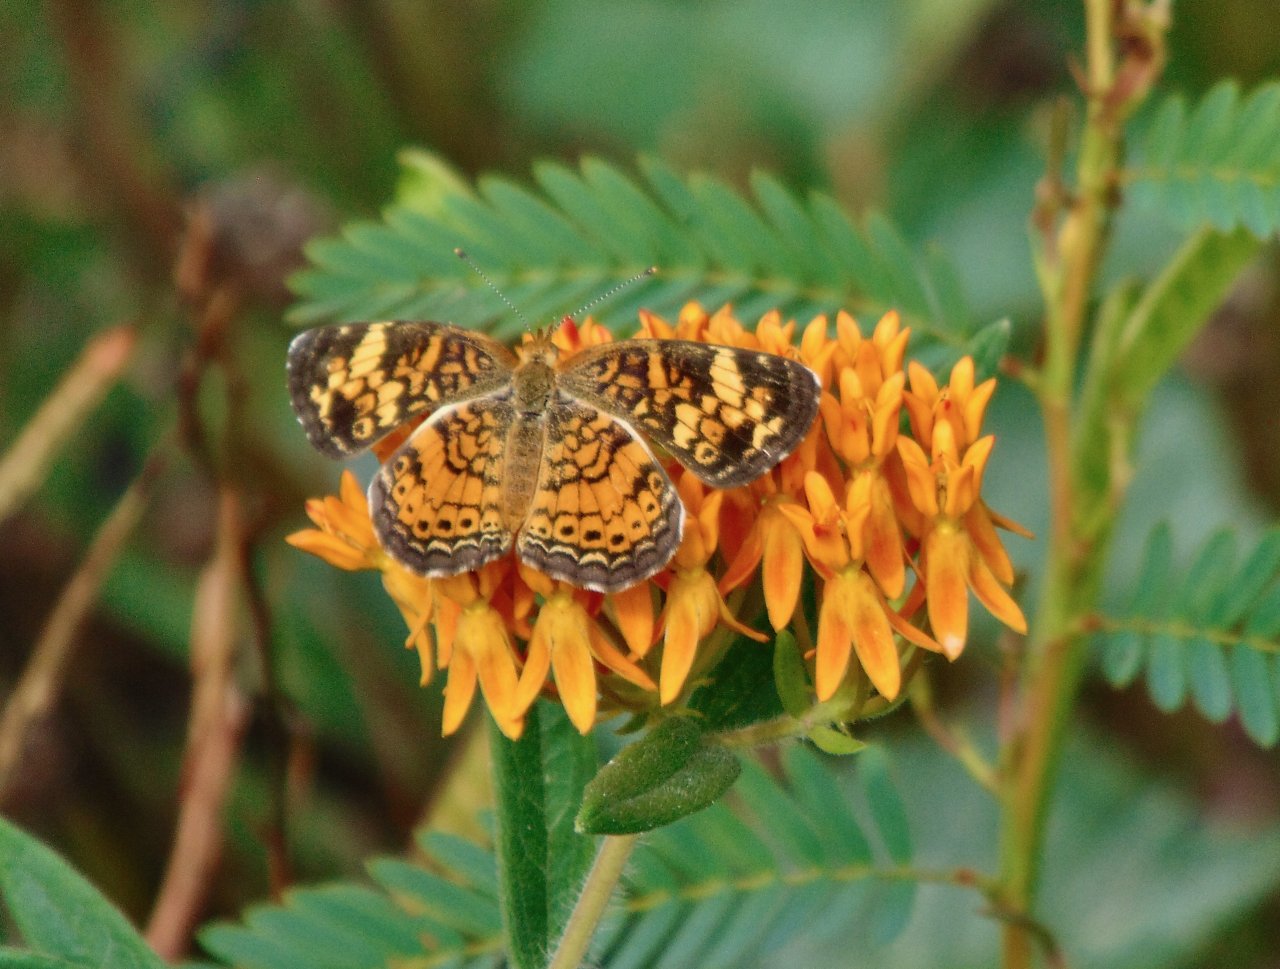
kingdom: Animalia
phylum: Arthropoda
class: Insecta
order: Lepidoptera
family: Nymphalidae
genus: Phyciodes
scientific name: Phyciodes tharos
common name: Pearl Crescent
